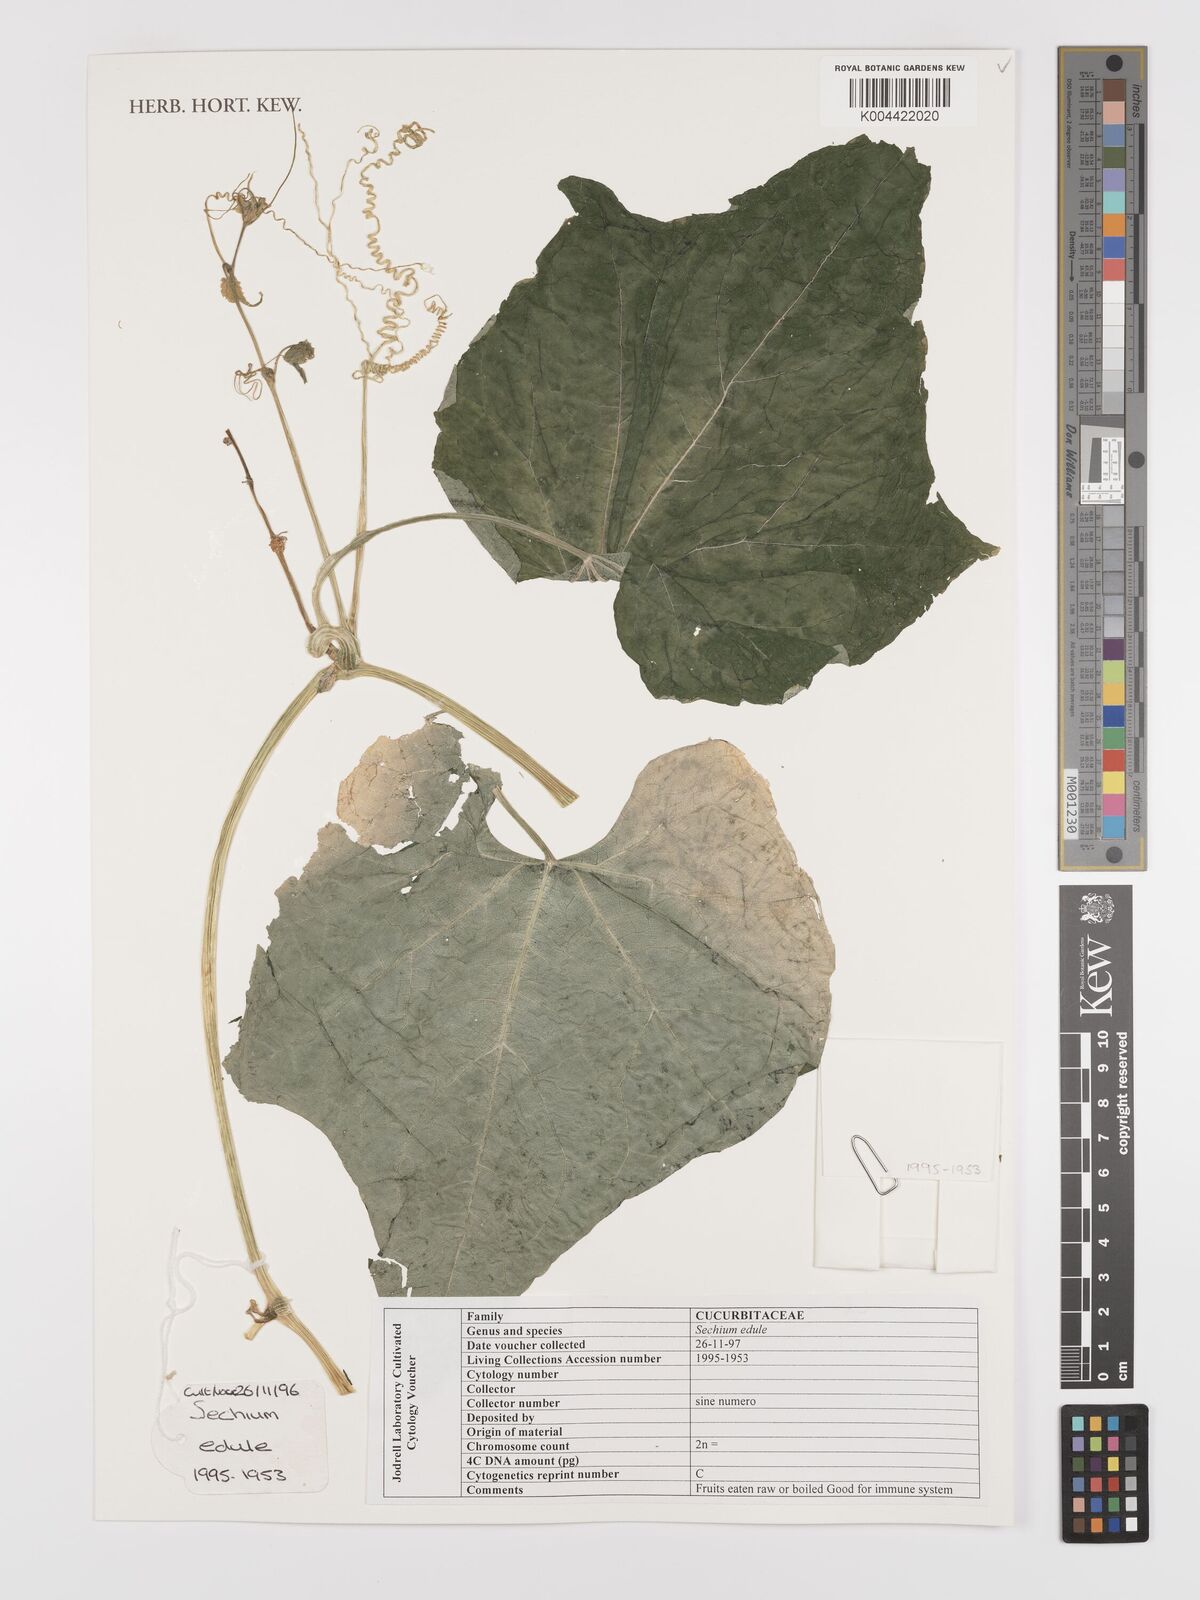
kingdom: Plantae
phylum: Tracheophyta
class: Magnoliopsida
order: Cucurbitales
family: Cucurbitaceae
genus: Sechium
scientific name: Sechium edule
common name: Chayote
